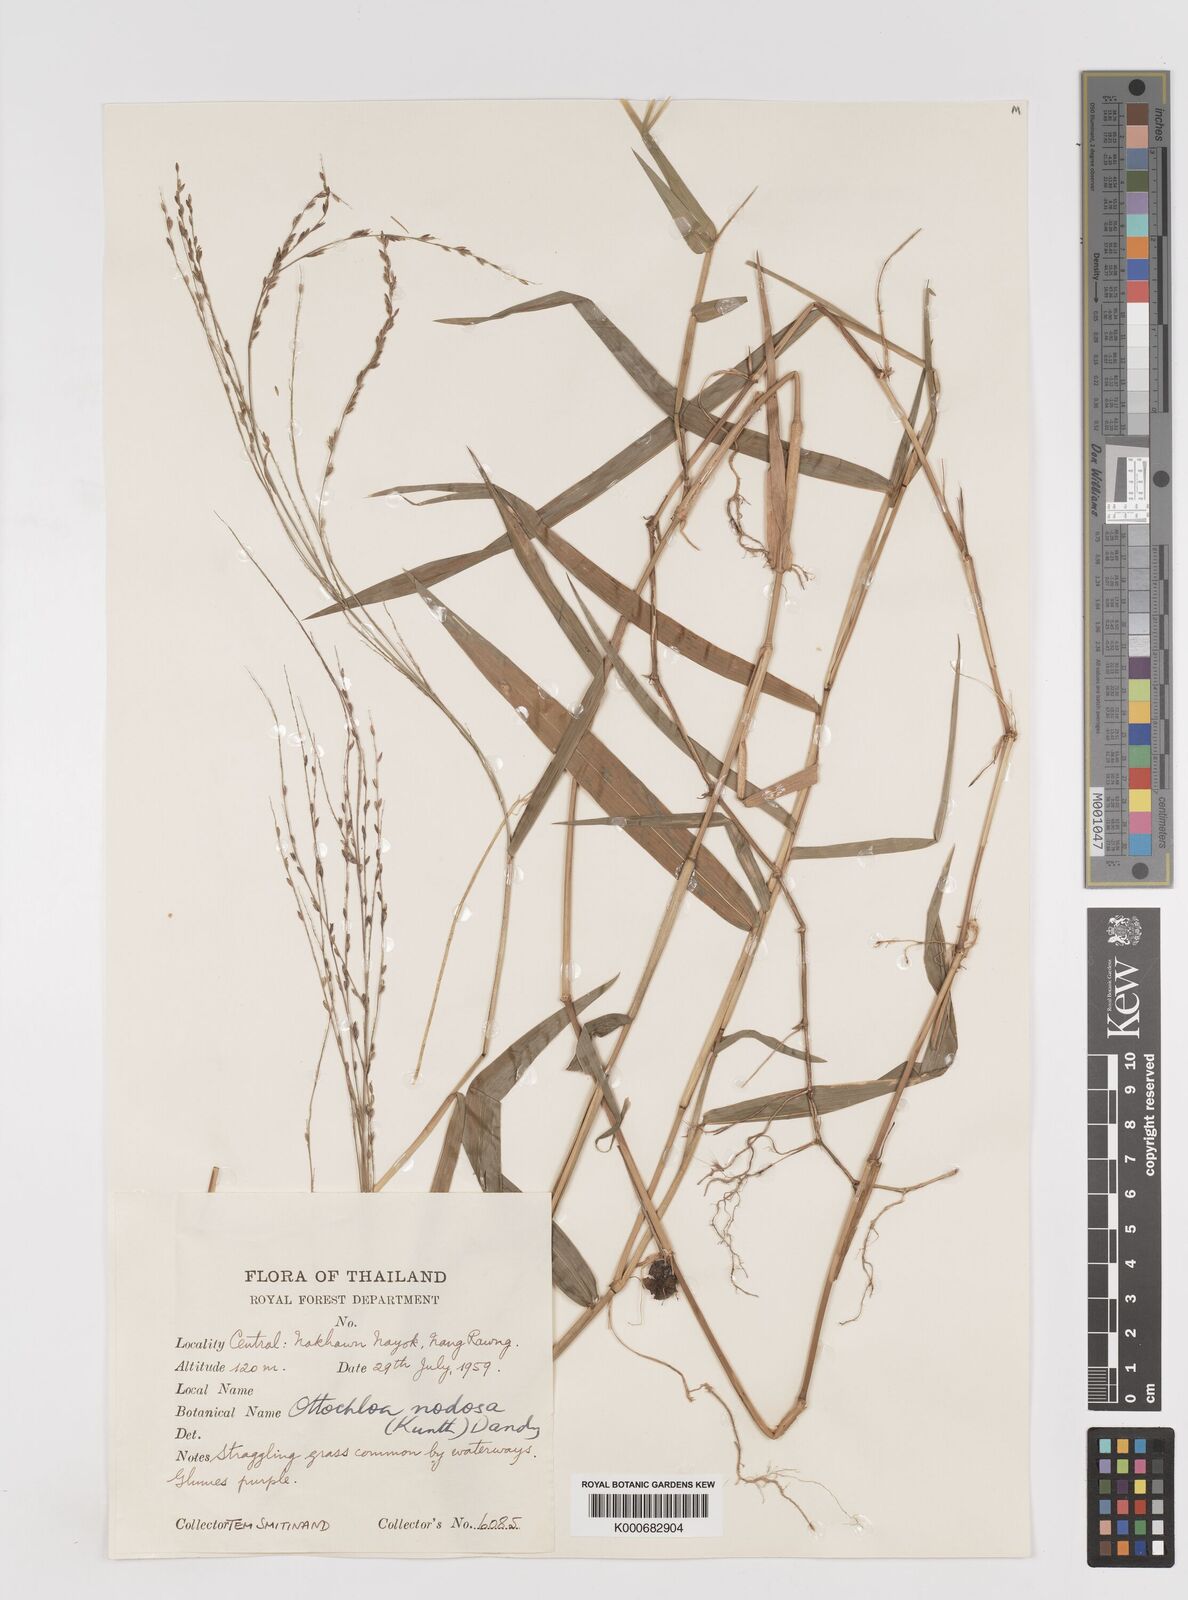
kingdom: Plantae
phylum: Tracheophyta
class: Liliopsida
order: Poales
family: Poaceae
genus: Ottochloa
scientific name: Ottochloa nodosa
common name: Slender-panic grass
